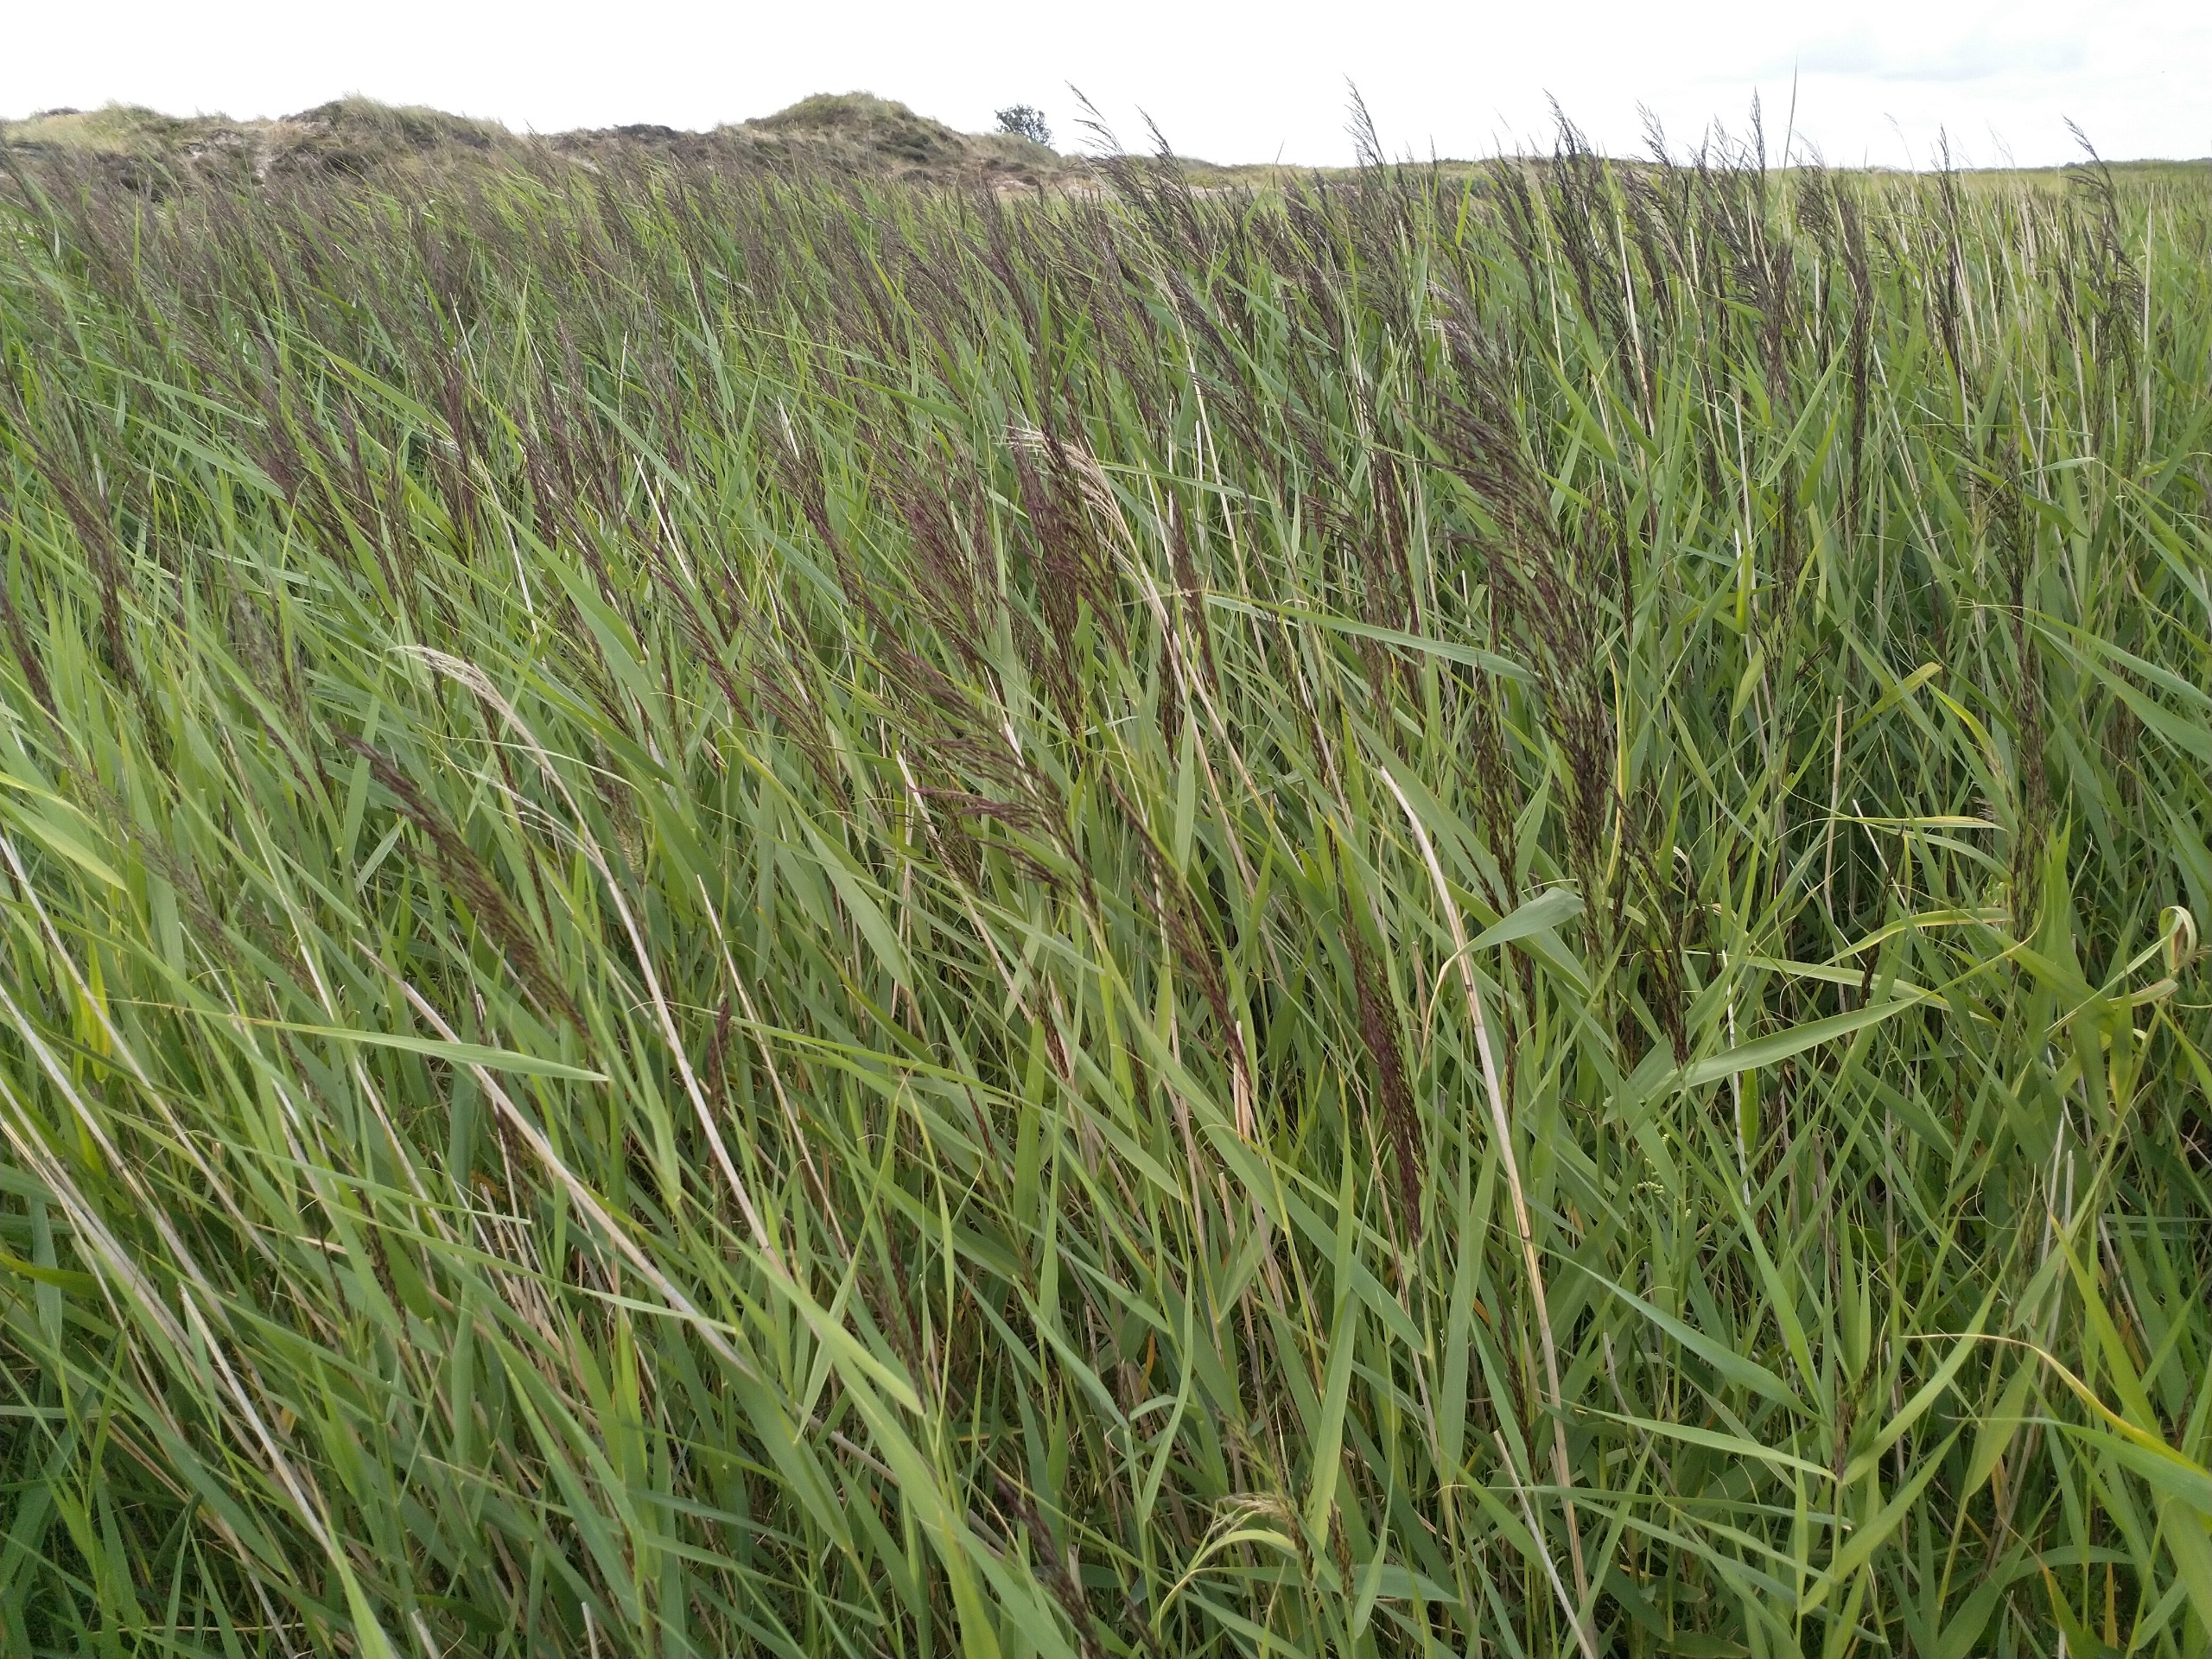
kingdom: Plantae
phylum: Tracheophyta
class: Liliopsida
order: Poales
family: Poaceae
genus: Phragmites
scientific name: Phragmites australis
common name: Tagrør
